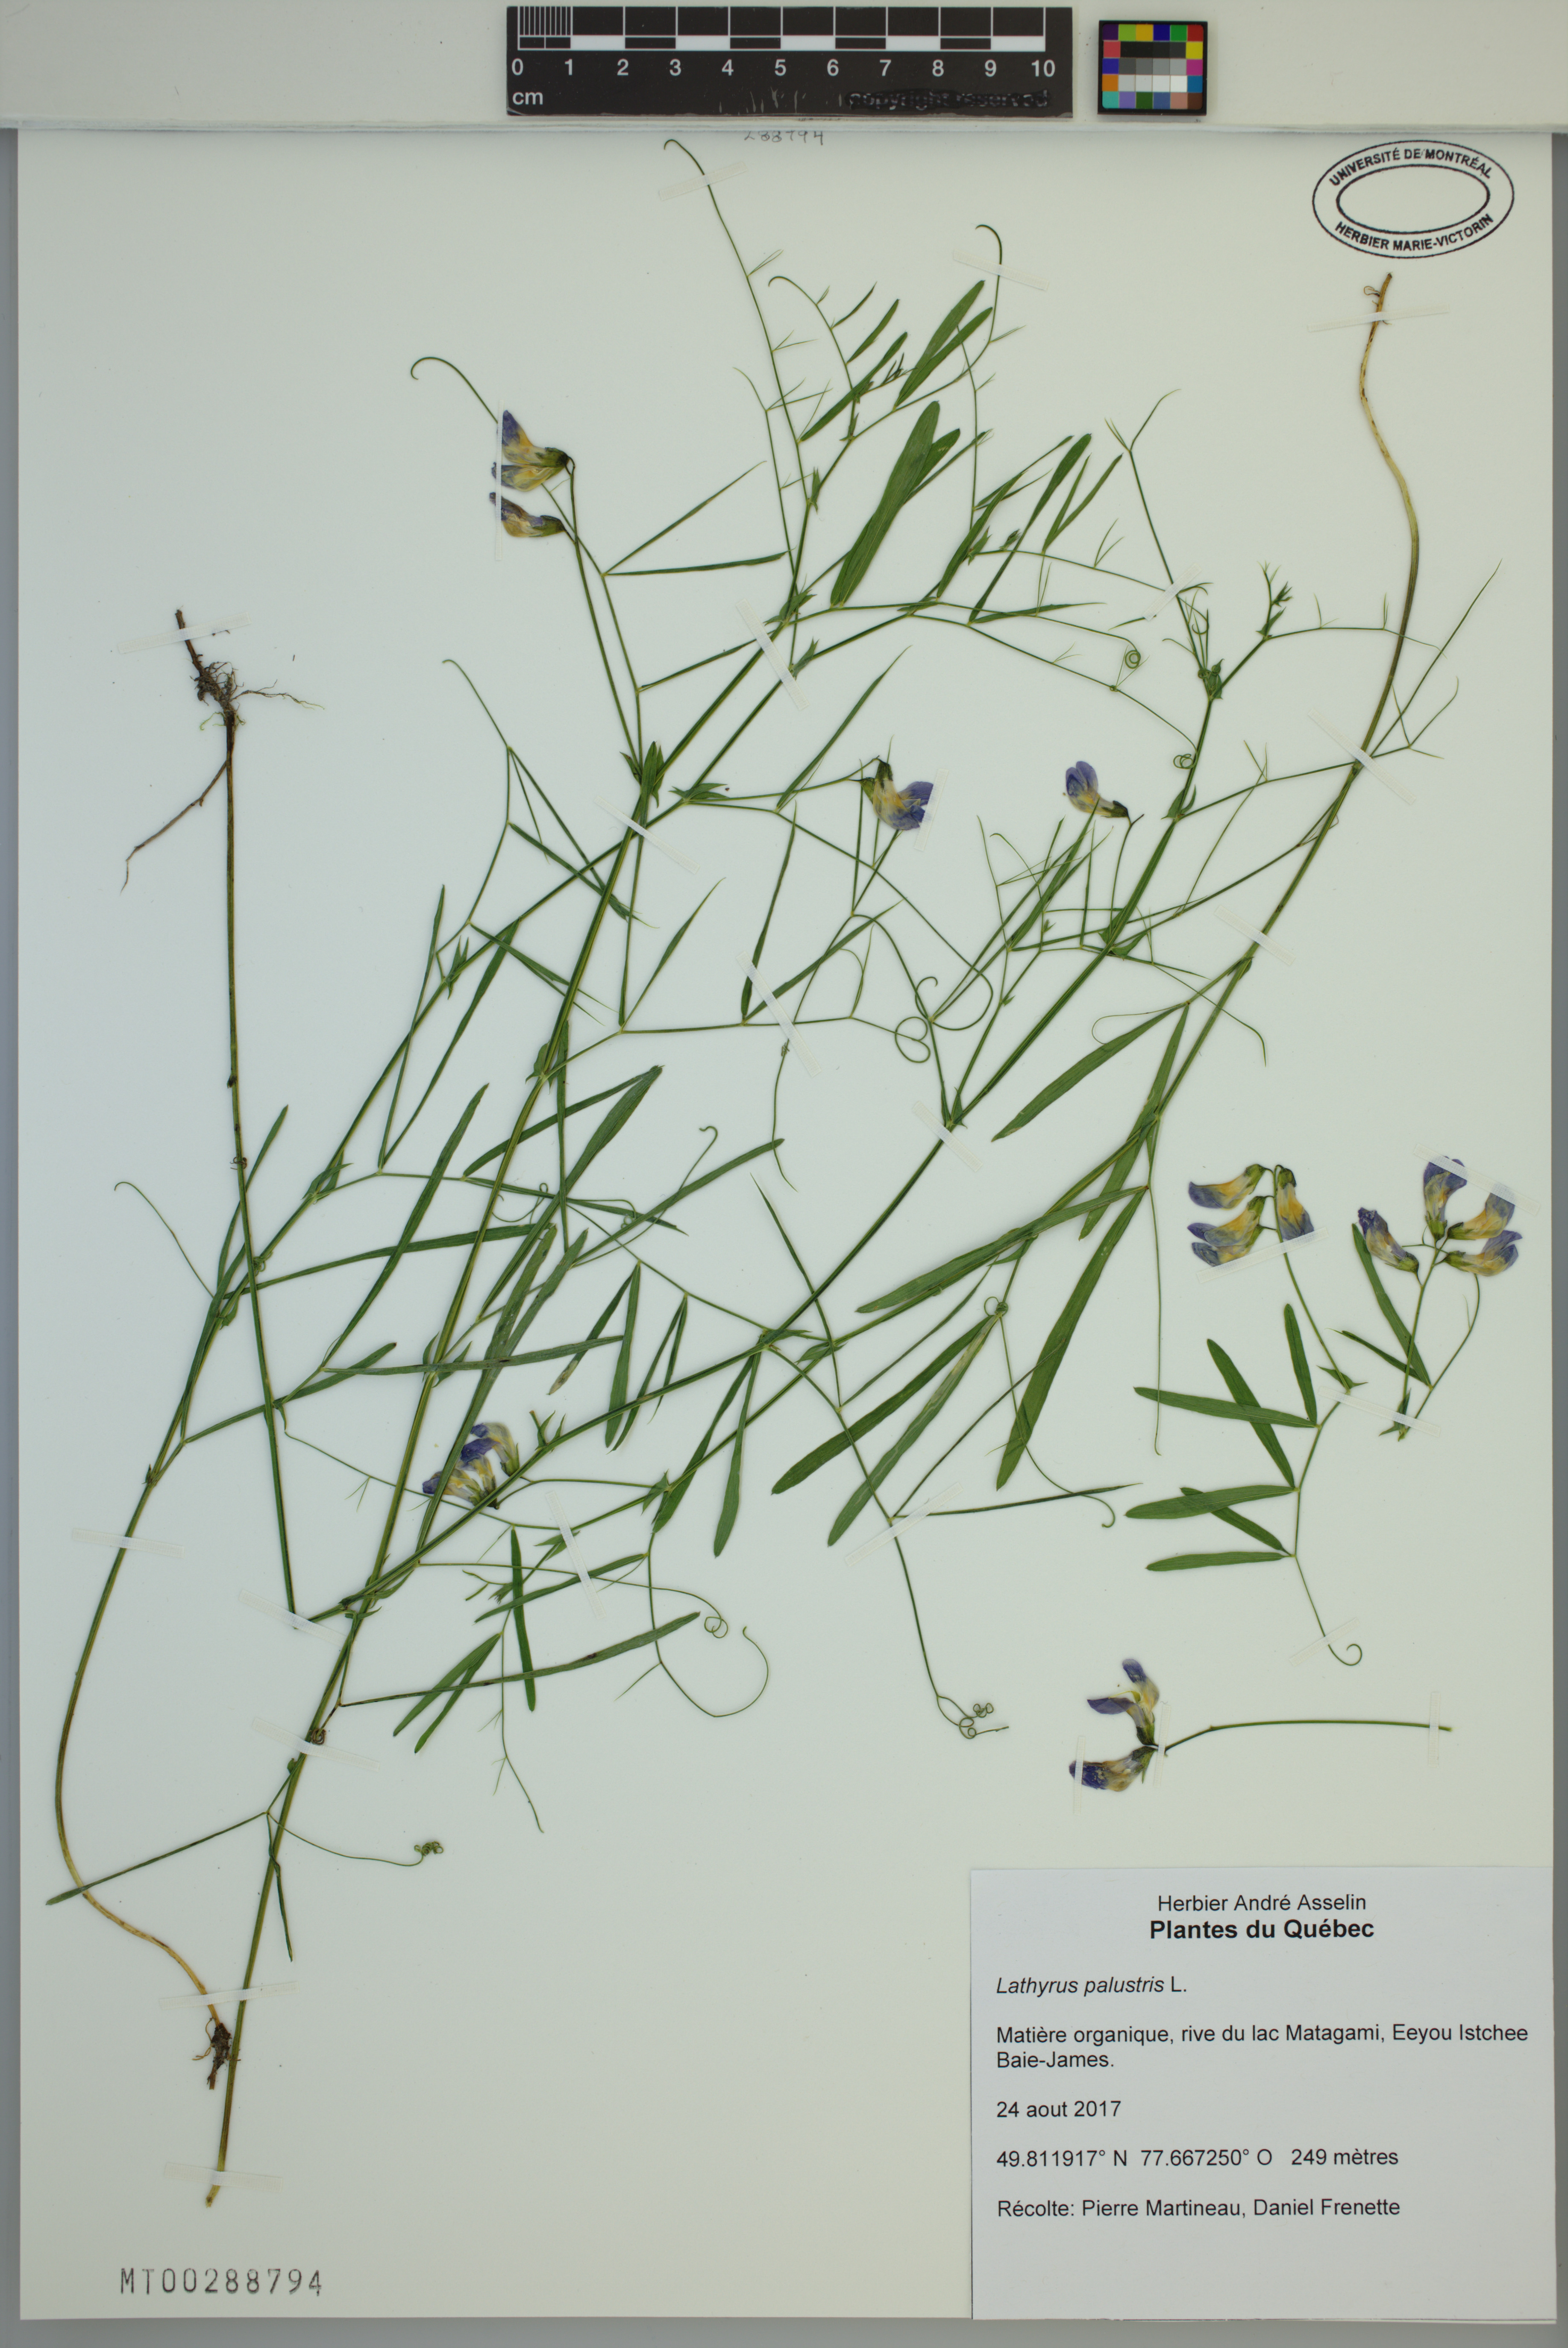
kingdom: Plantae
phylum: Tracheophyta
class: Magnoliopsida
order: Fabales
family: Fabaceae
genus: Lathyrus
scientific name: Lathyrus palustris
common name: Marsh pea
